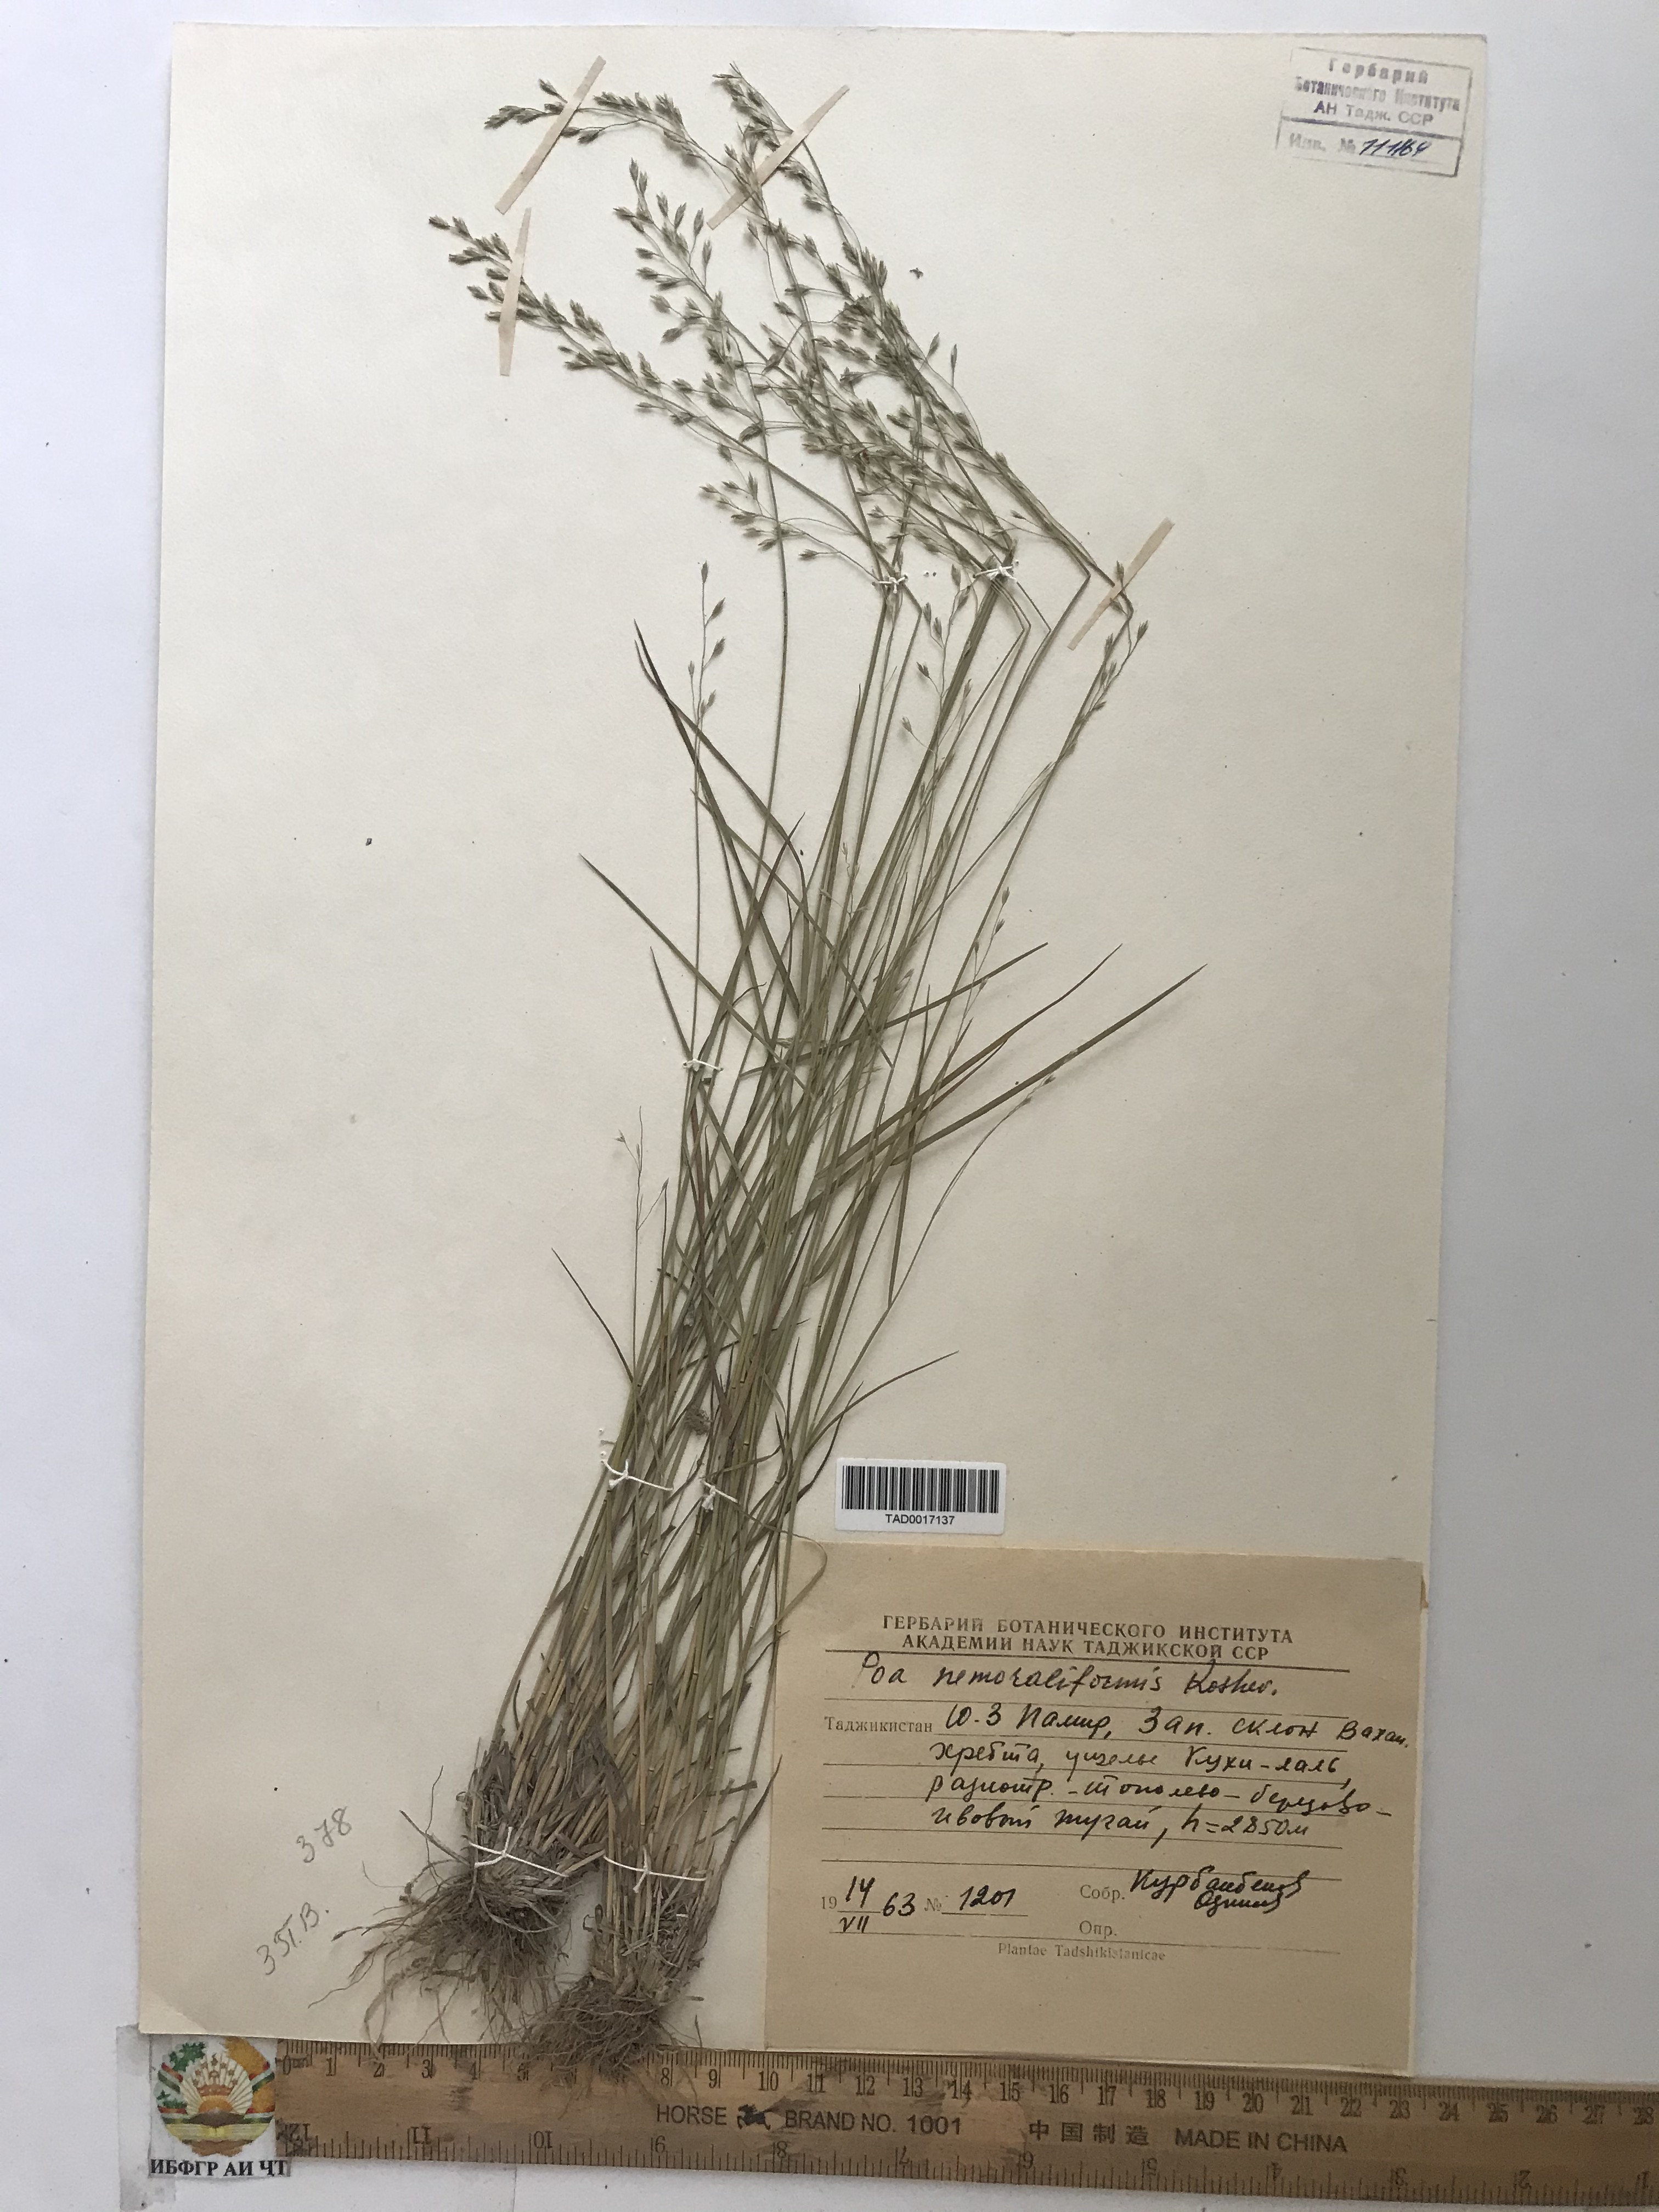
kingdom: Plantae
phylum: Tracheophyta
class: Liliopsida
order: Poales
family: Poaceae
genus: Poa
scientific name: Poa urssulensis
